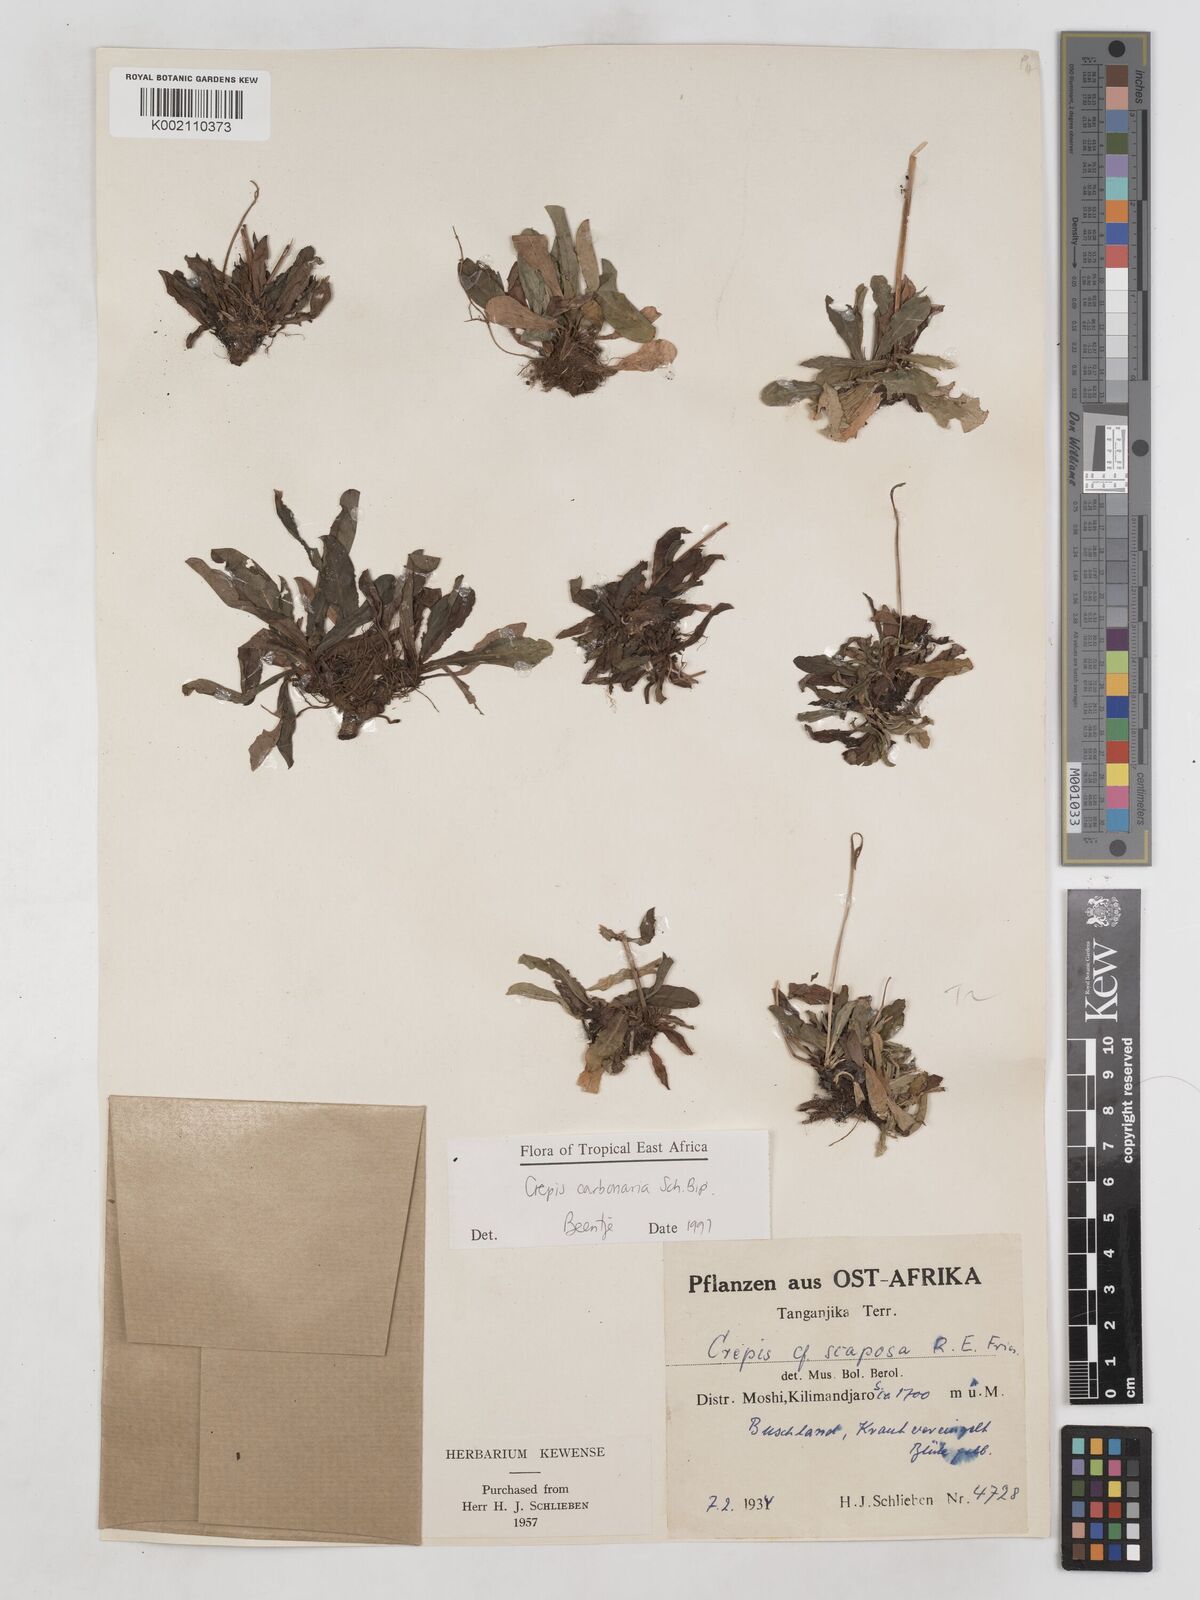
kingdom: Plantae
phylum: Tracheophyta
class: Magnoliopsida
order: Asterales
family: Asteraceae
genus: Crepis
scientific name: Crepis carbonaria
